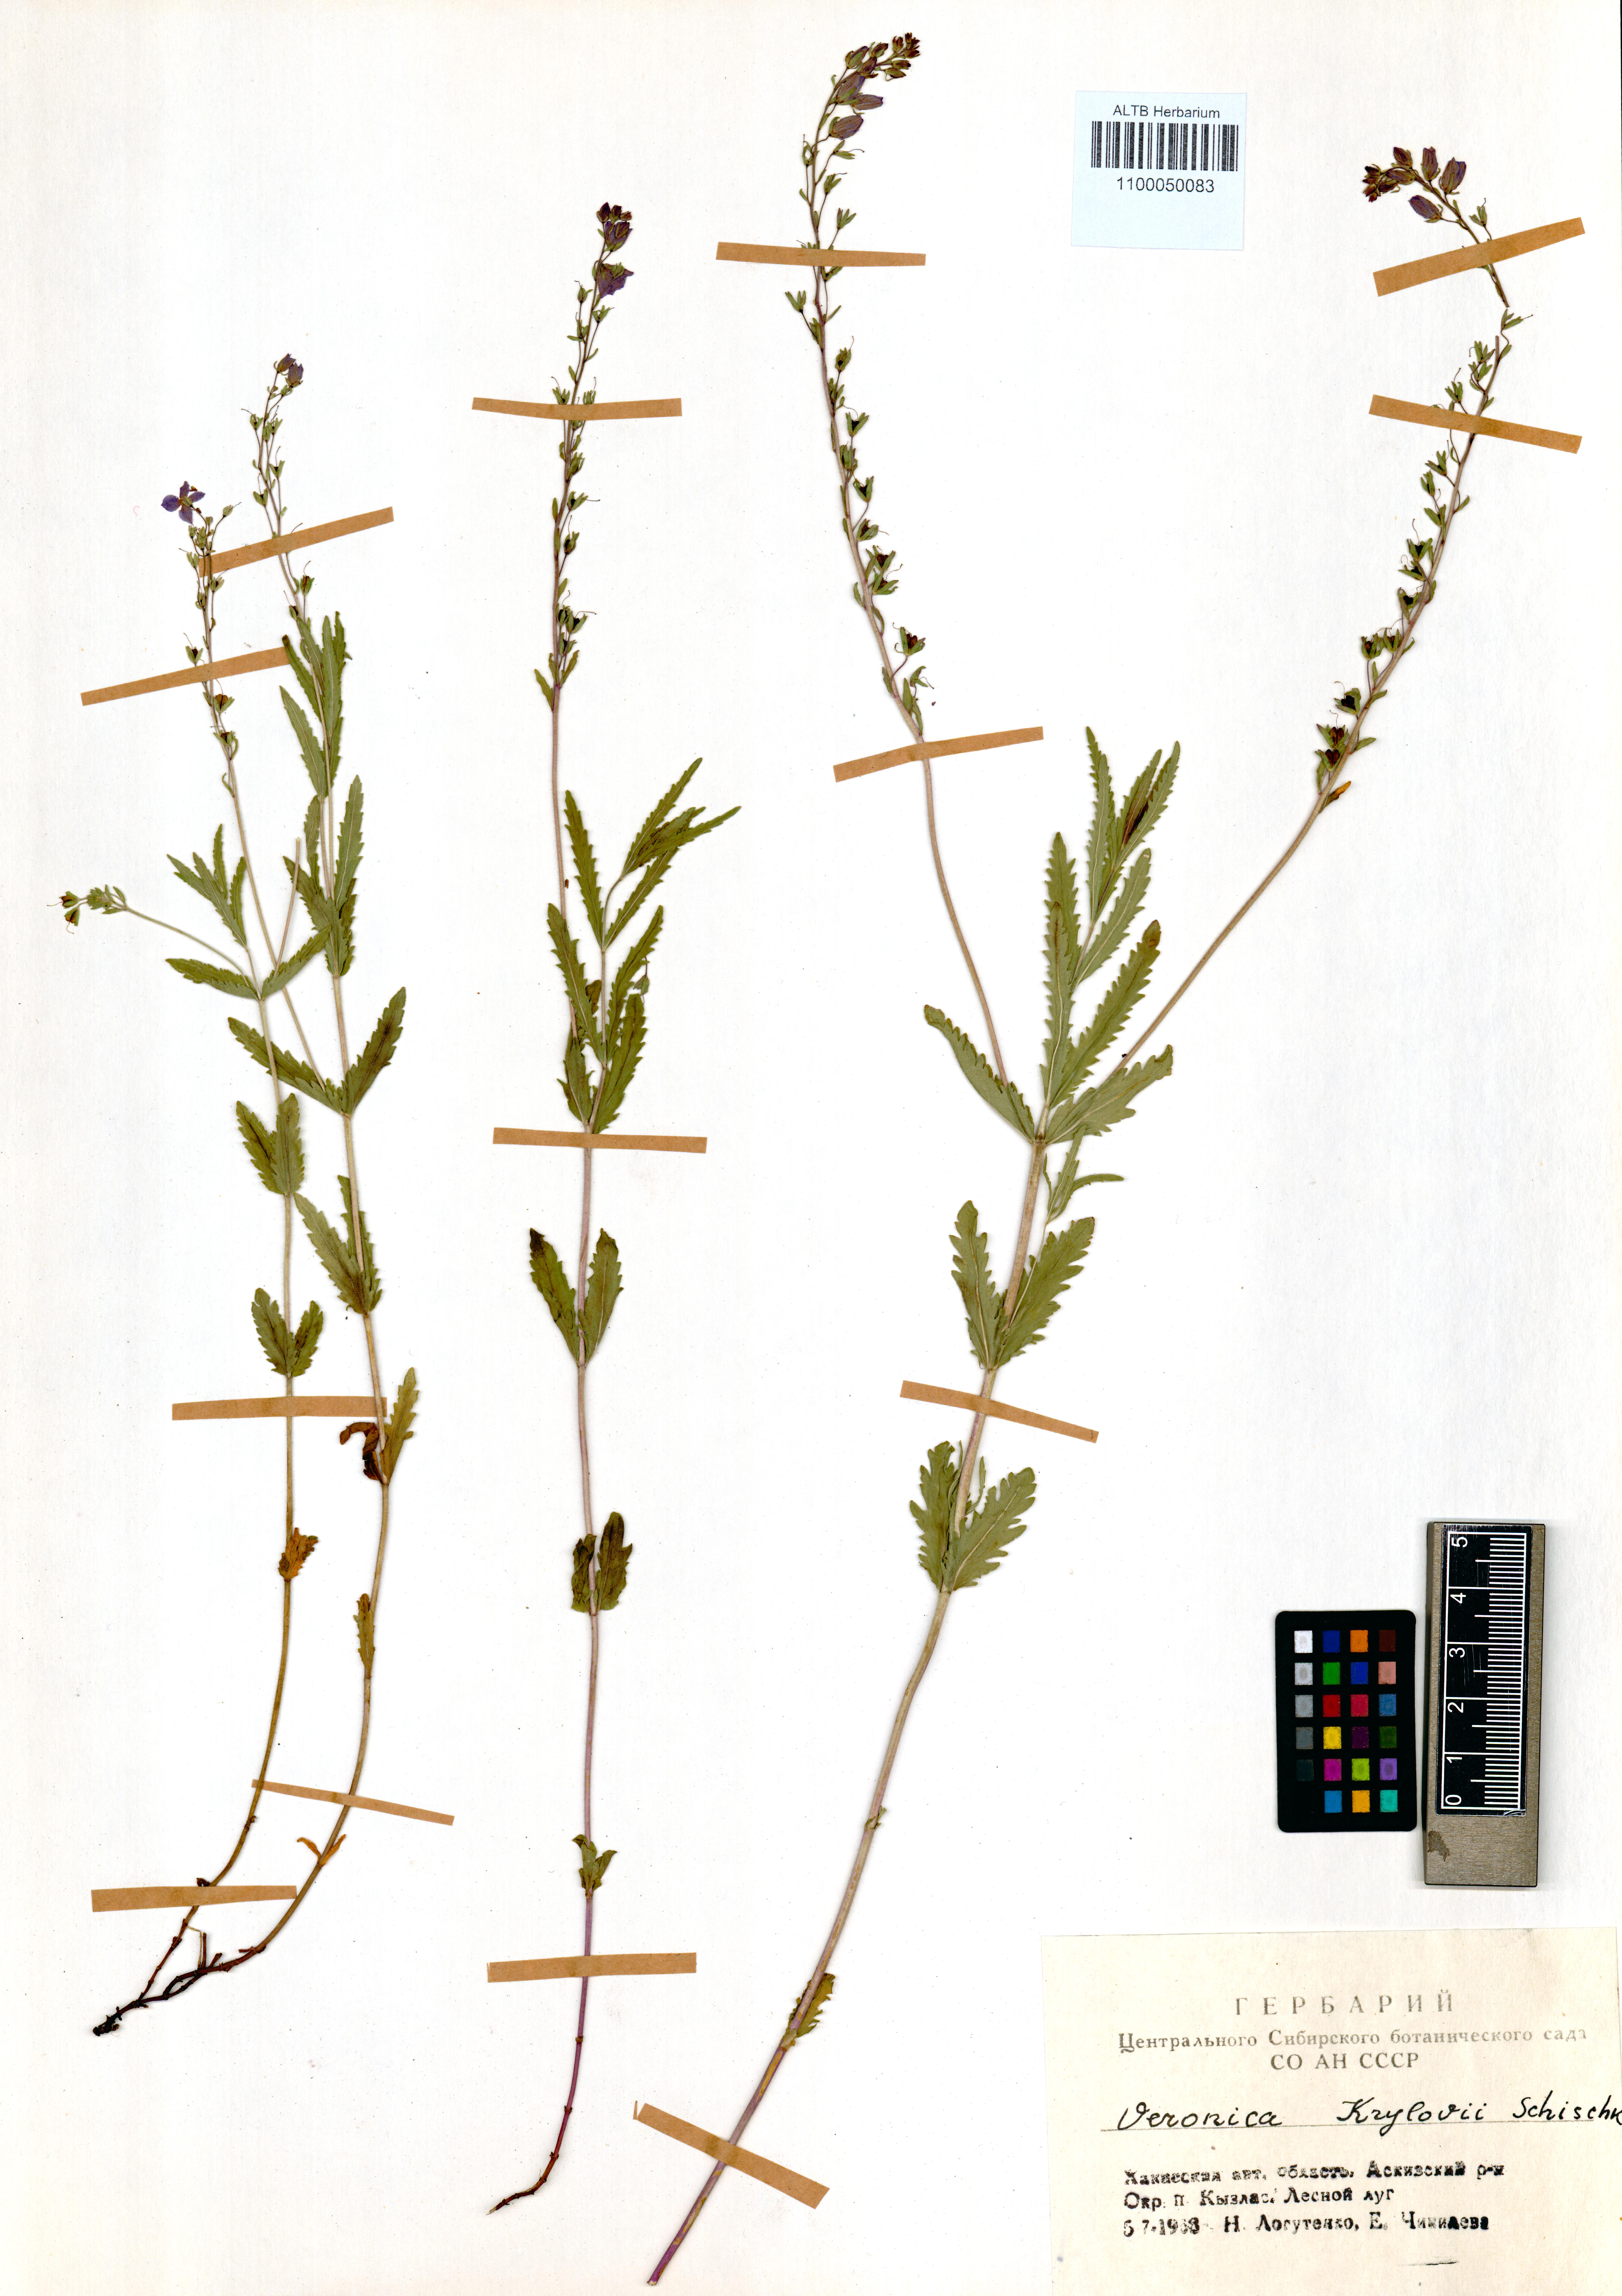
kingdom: Plantae
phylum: Tracheophyta
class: Magnoliopsida
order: Lamiales
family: Plantaginaceae
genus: Veronica
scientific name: Veronica krylovii
